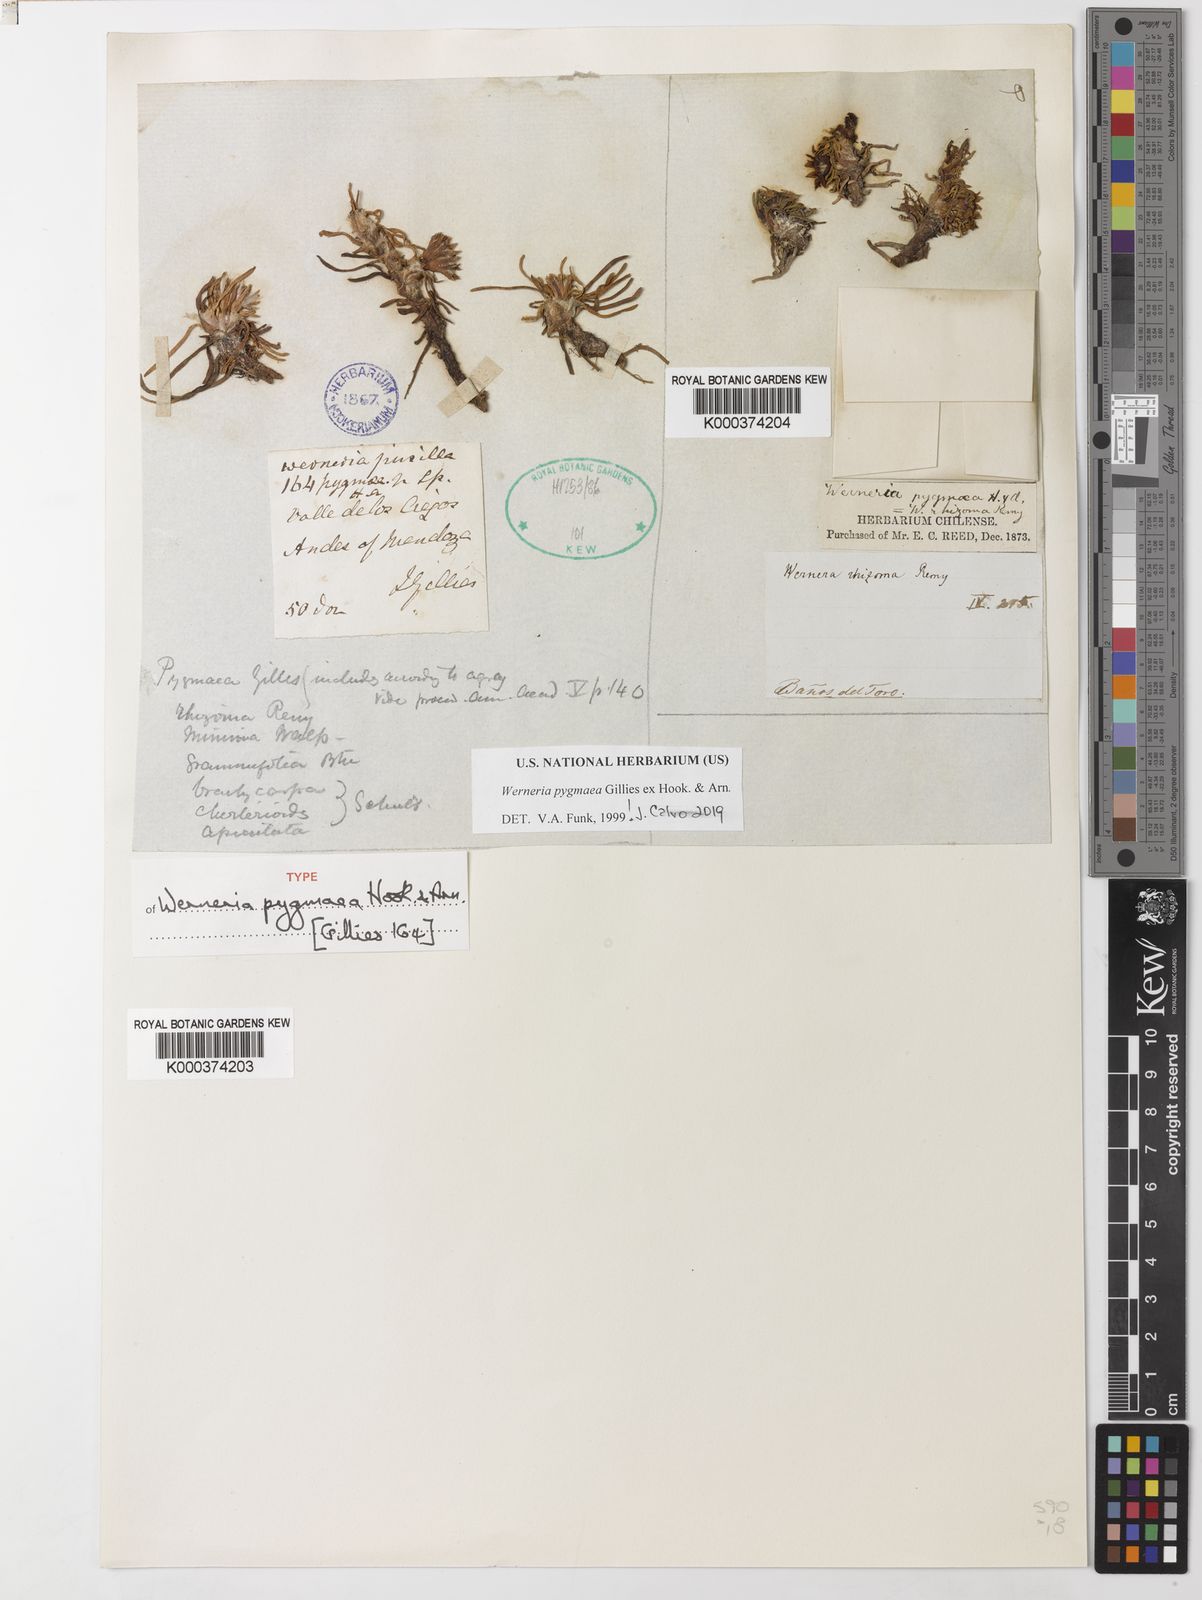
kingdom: Plantae
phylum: Tracheophyta
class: Magnoliopsida
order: Asterales
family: Asteraceae
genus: Rockhausenia
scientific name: Rockhausenia pygmaea
